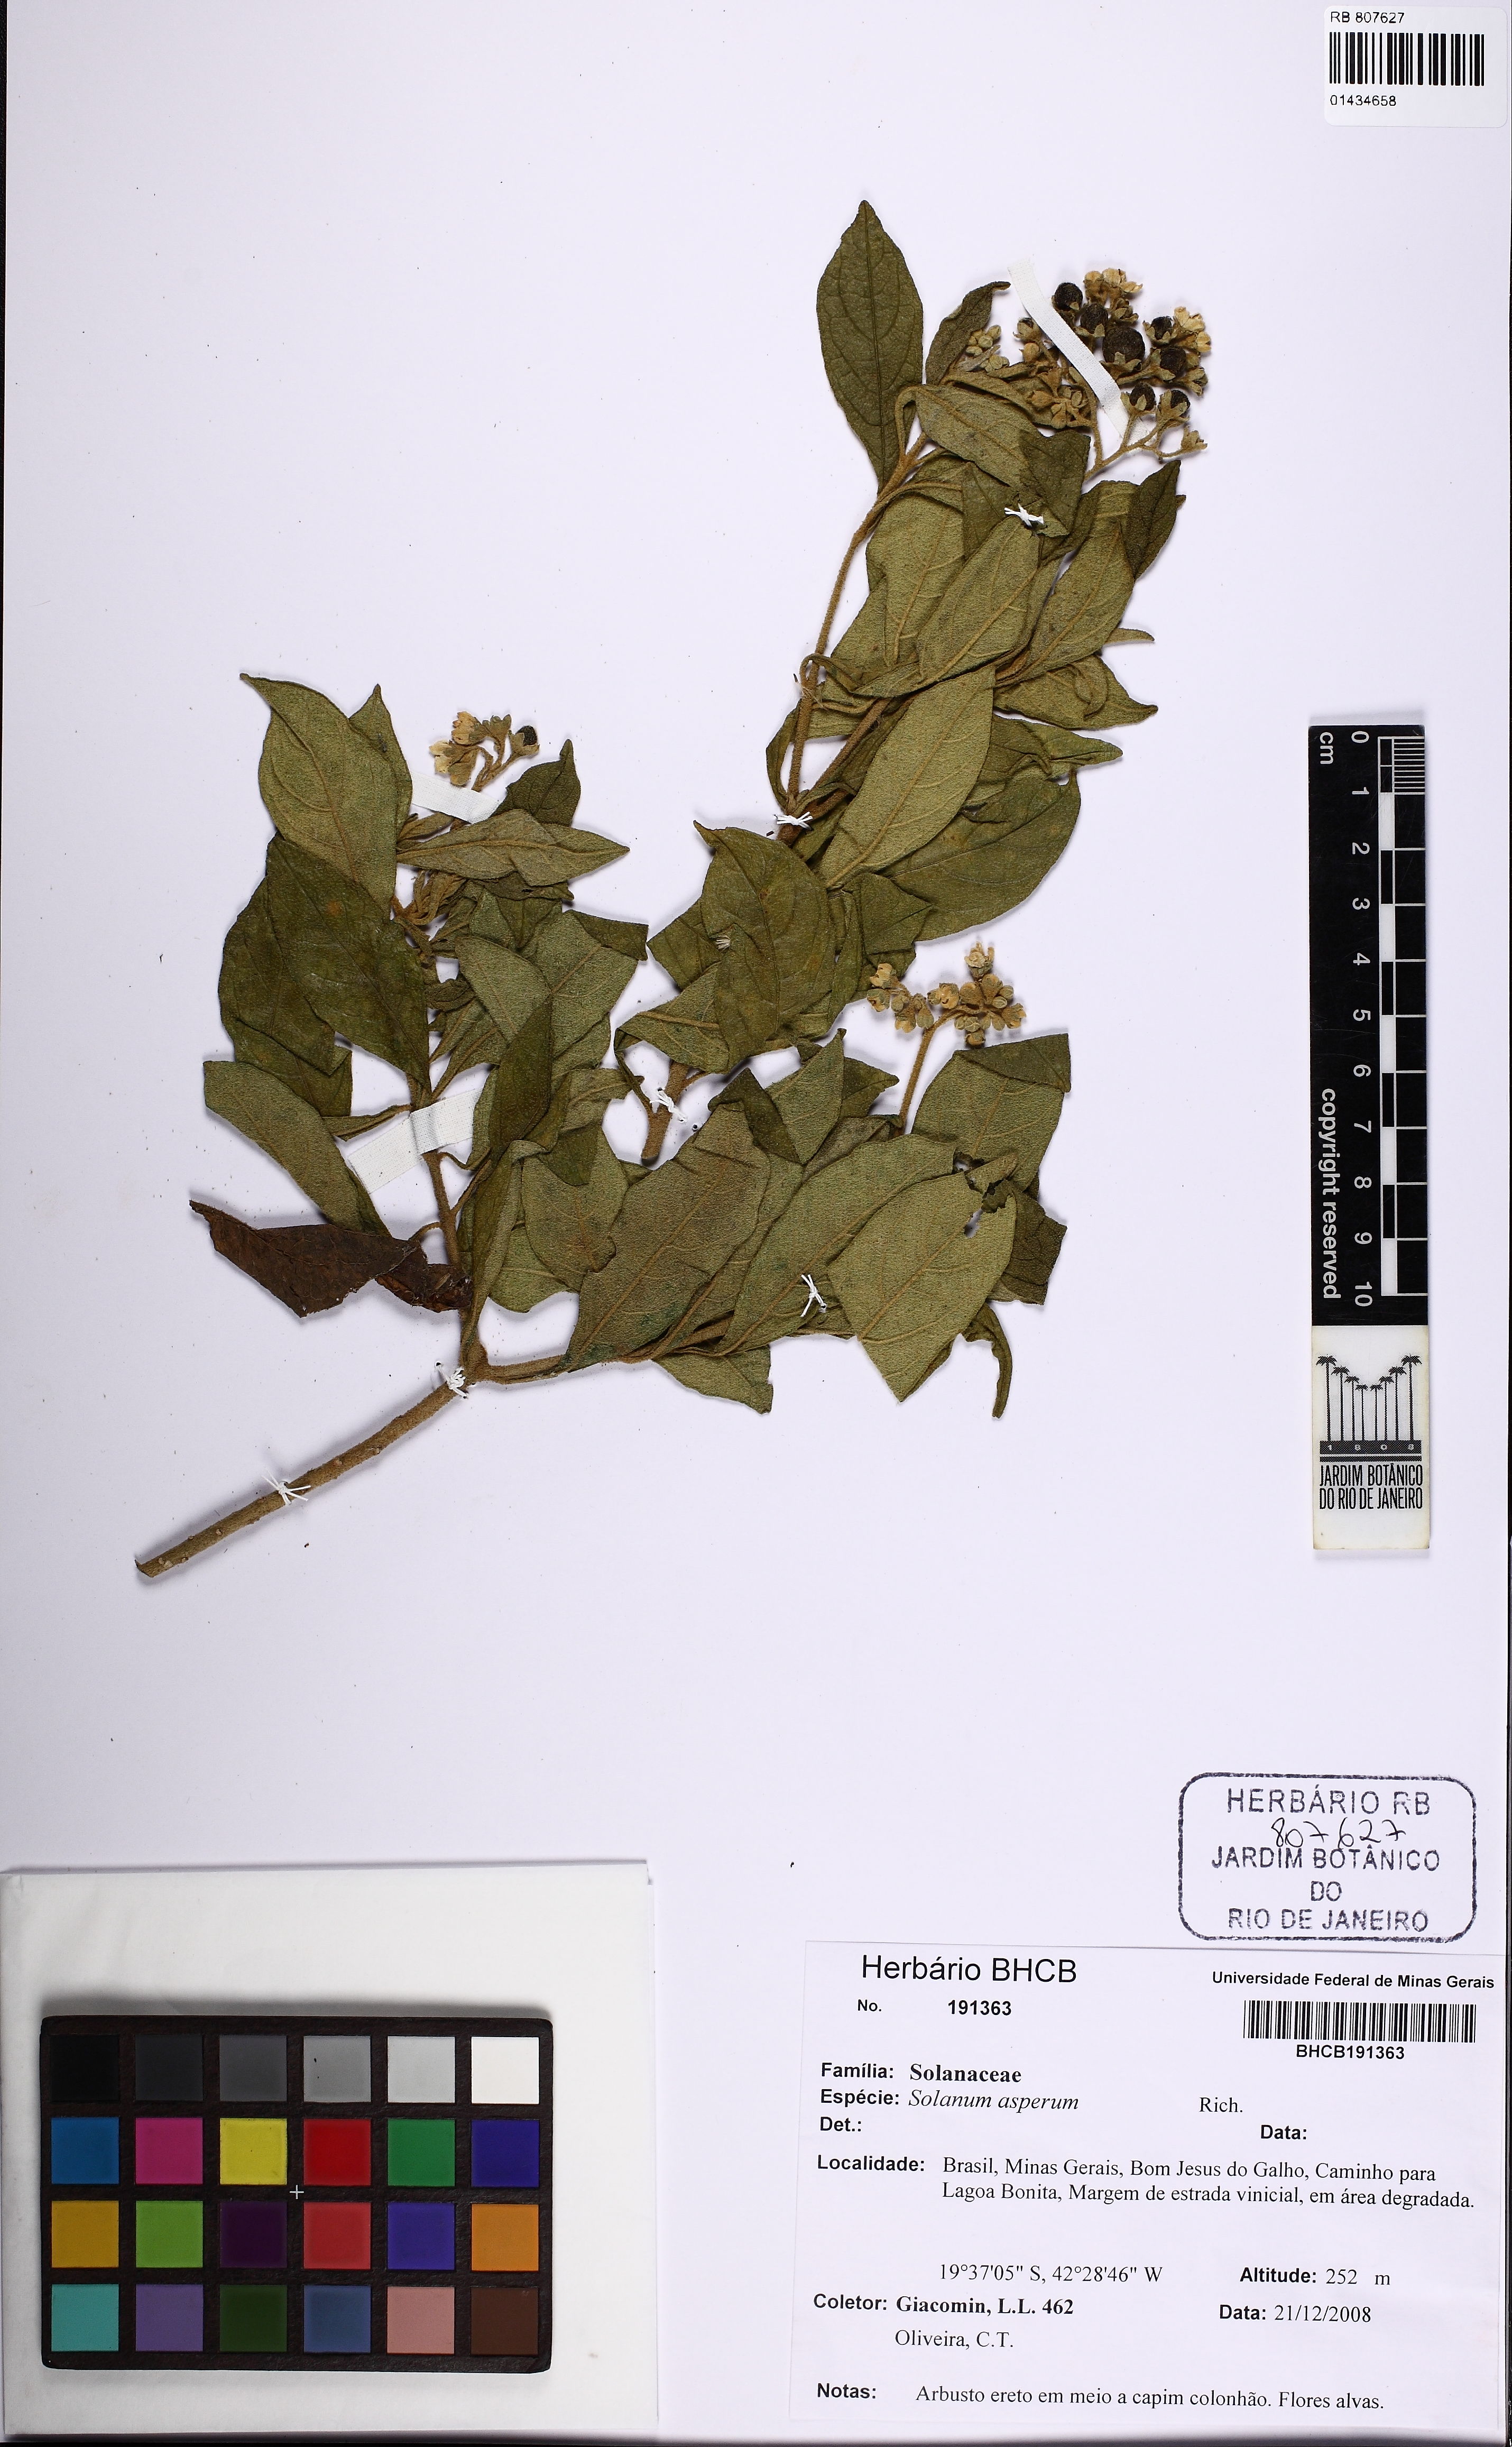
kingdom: Plantae
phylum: Tracheophyta
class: Magnoliopsida
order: Solanales
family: Solanaceae
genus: Solanum
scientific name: Solanum asperum
